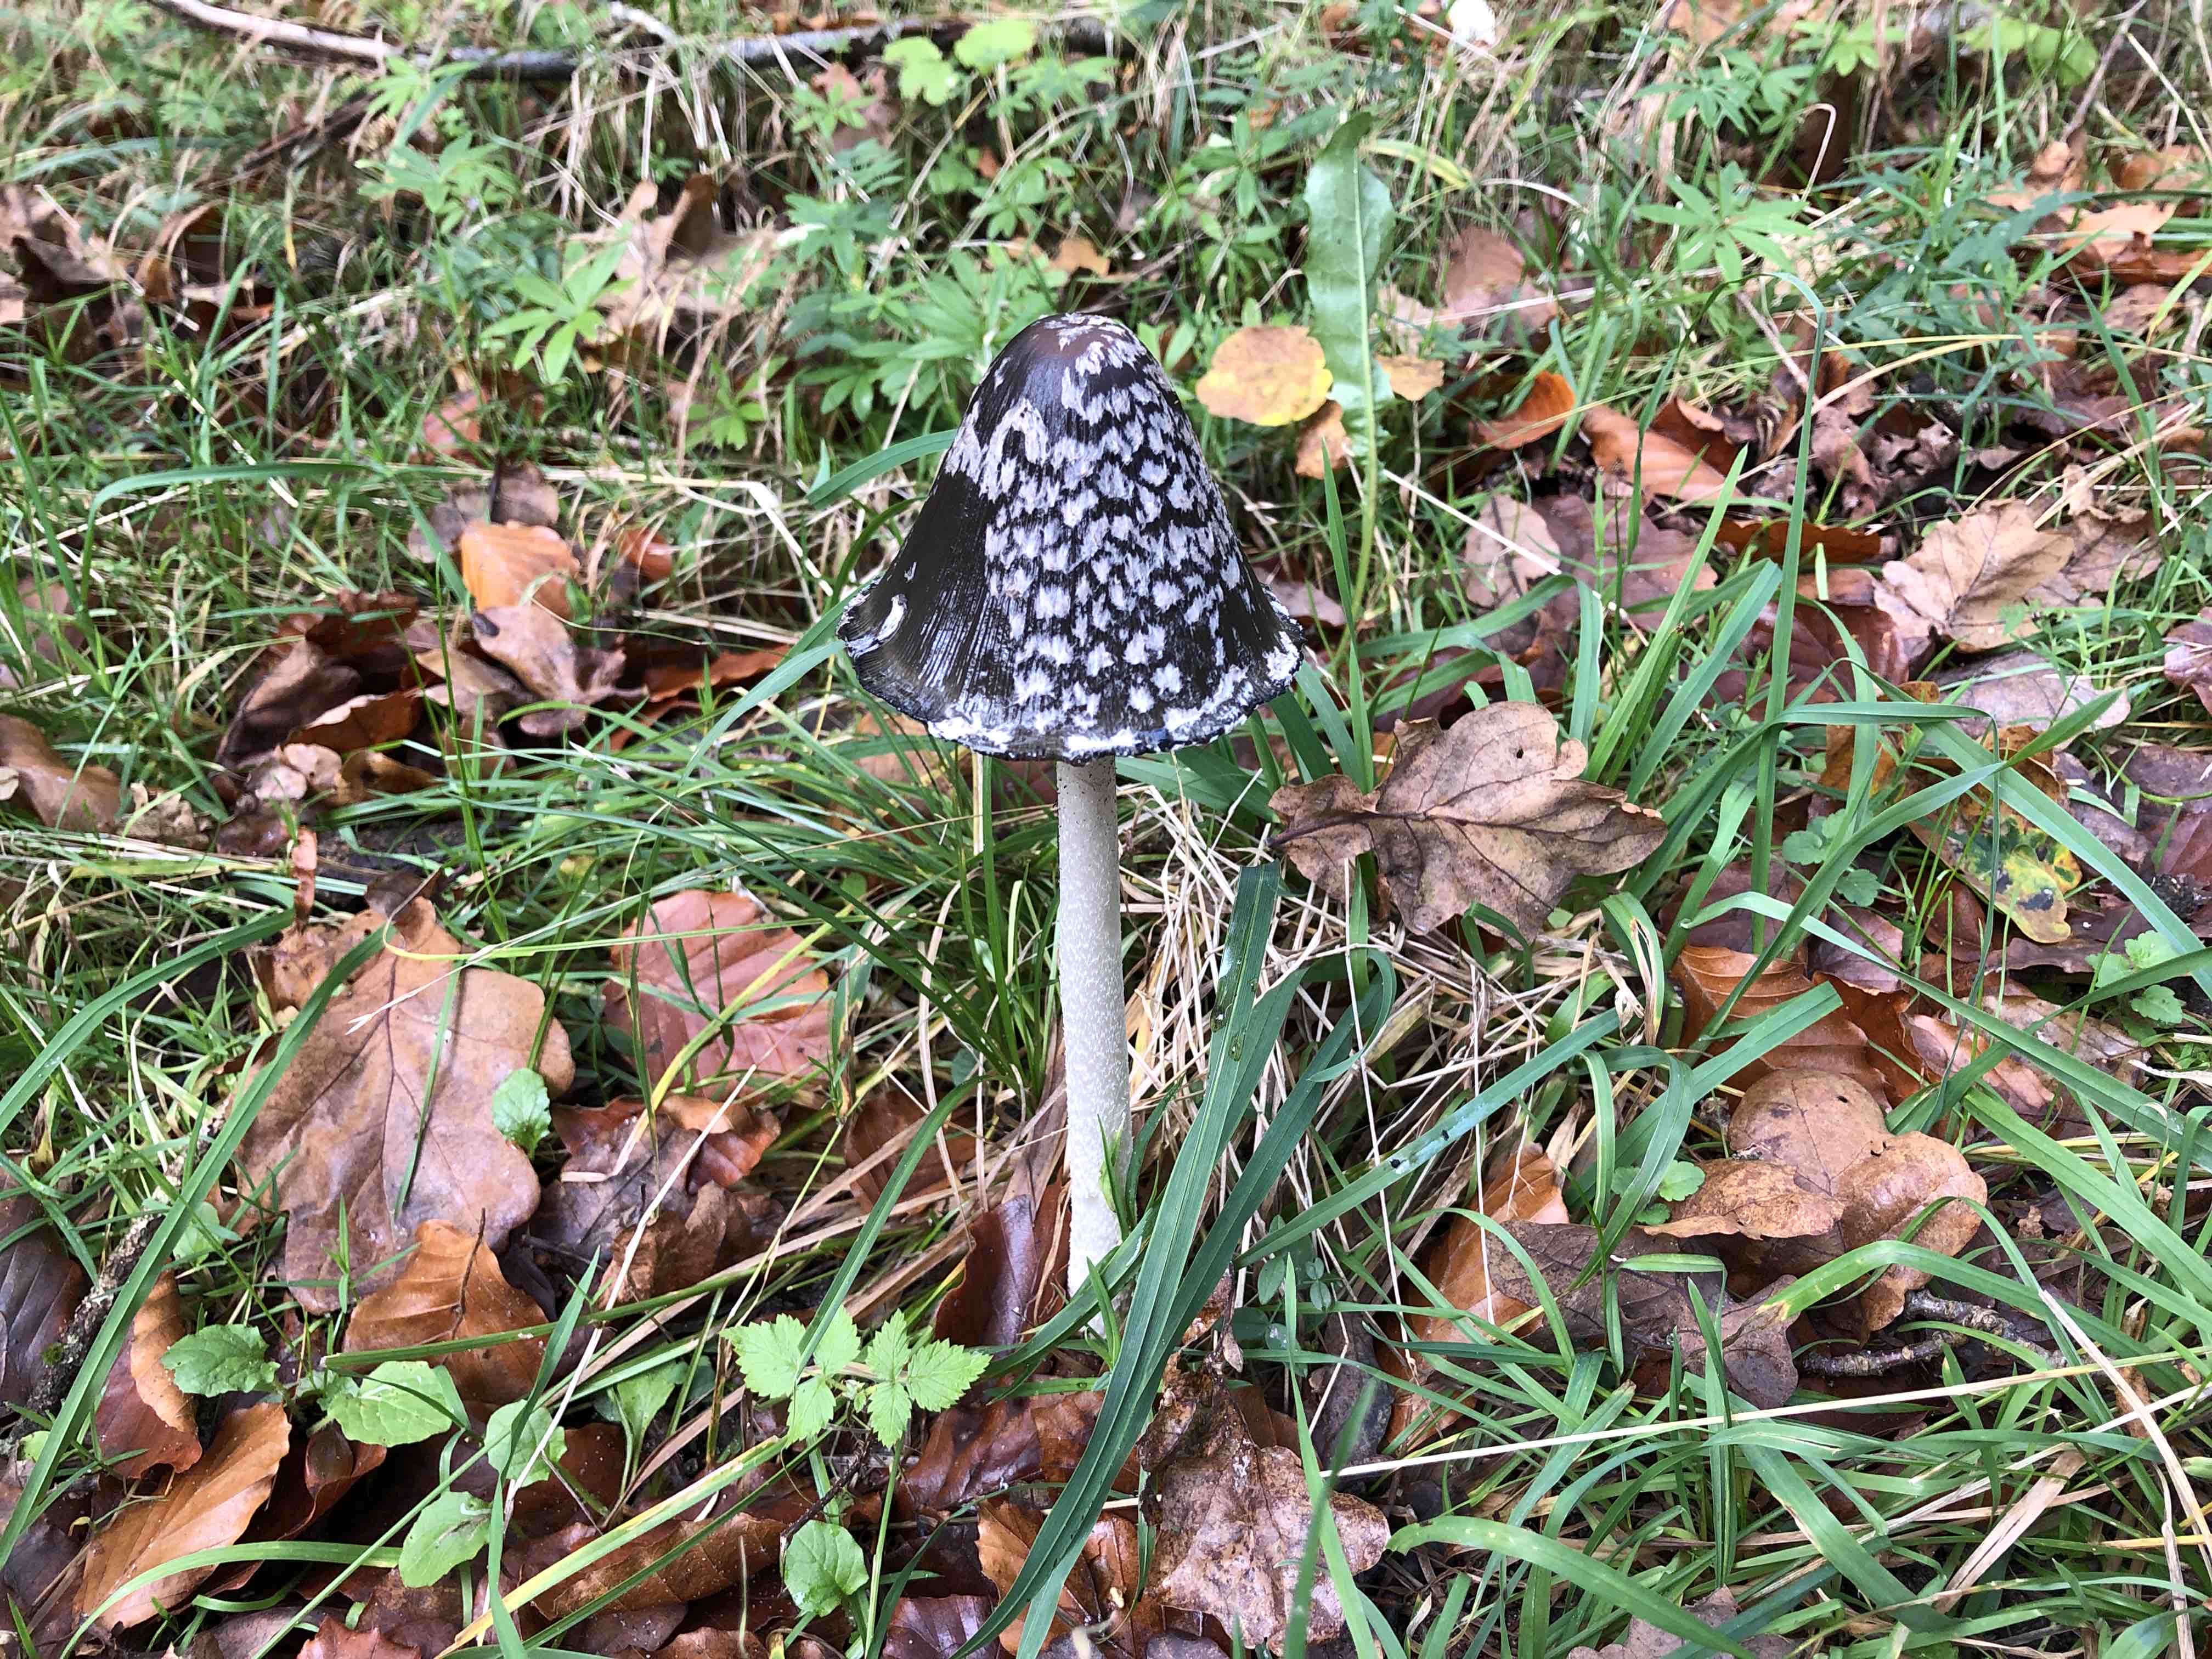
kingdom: Fungi
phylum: Basidiomycota
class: Agaricomycetes
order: Agaricales
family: Psathyrellaceae
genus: Coprinopsis
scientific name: Coprinopsis picacea
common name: skade-blækhat
